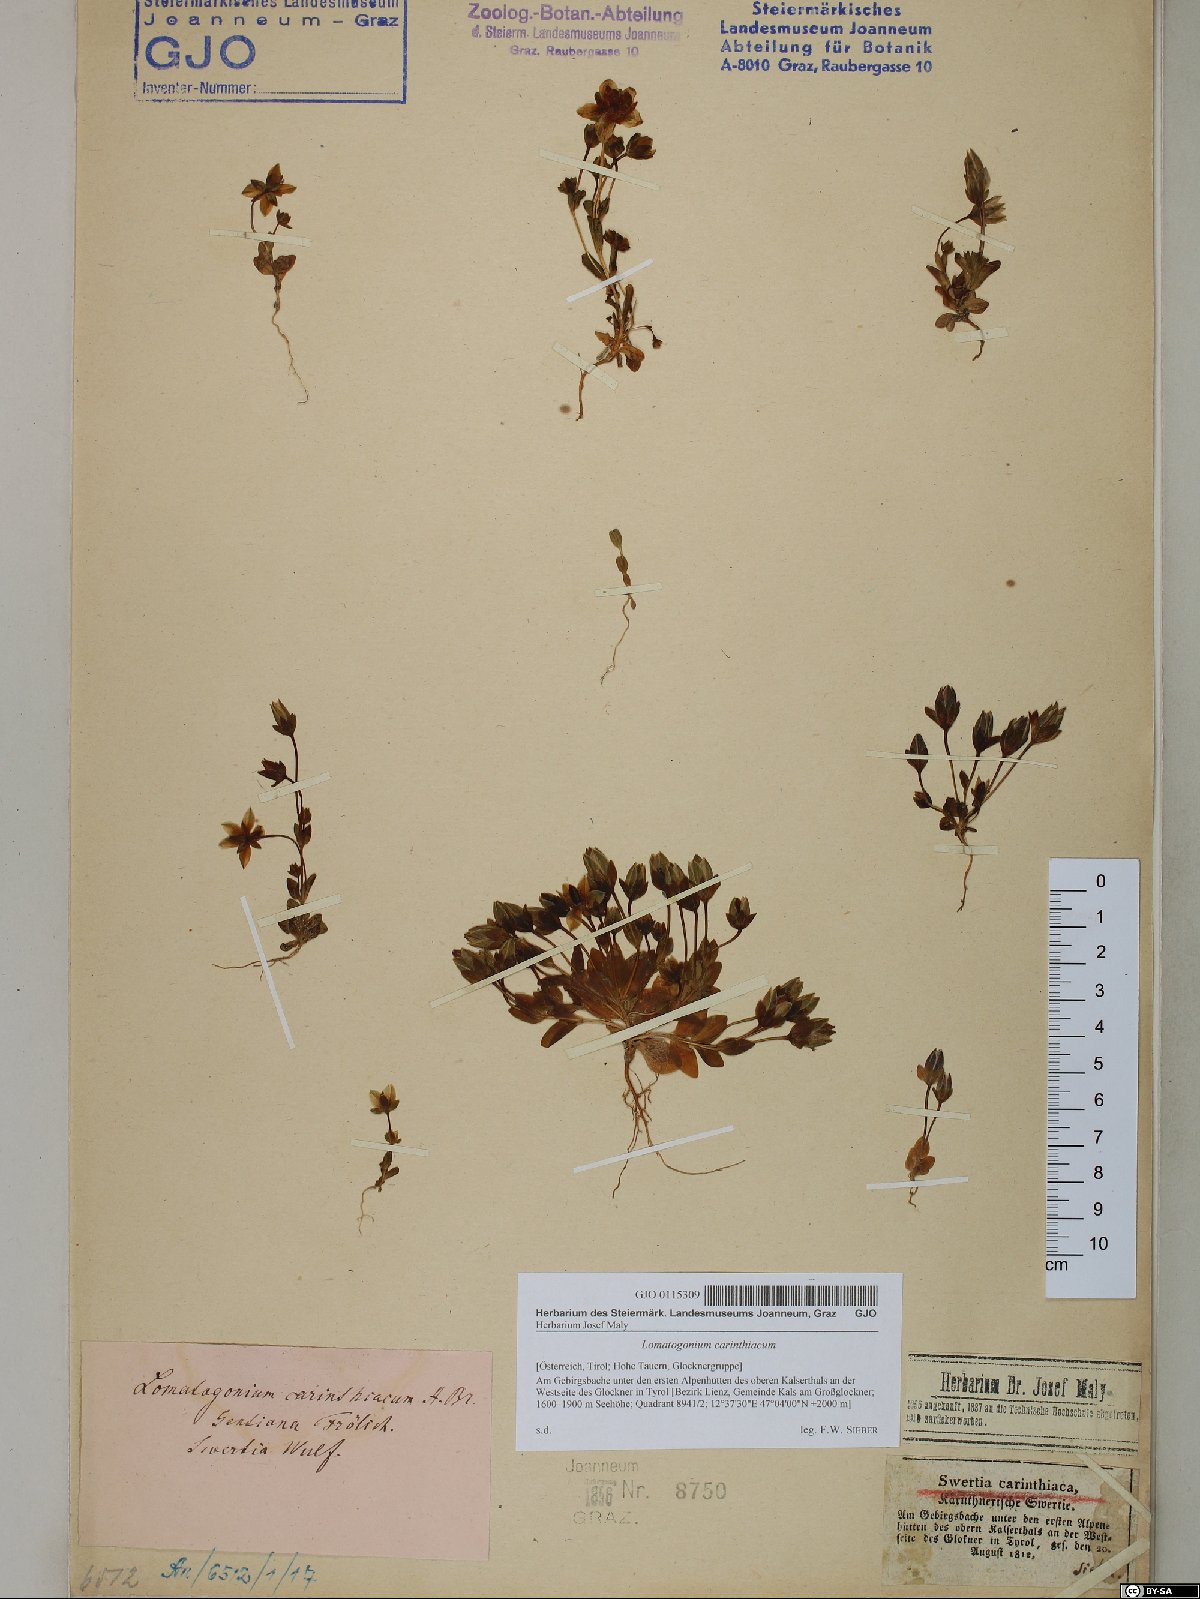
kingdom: Plantae
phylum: Tracheophyta
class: Magnoliopsida
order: Gentianales
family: Gentianaceae
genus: Lomatogonium
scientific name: Lomatogonium carinthiacum
